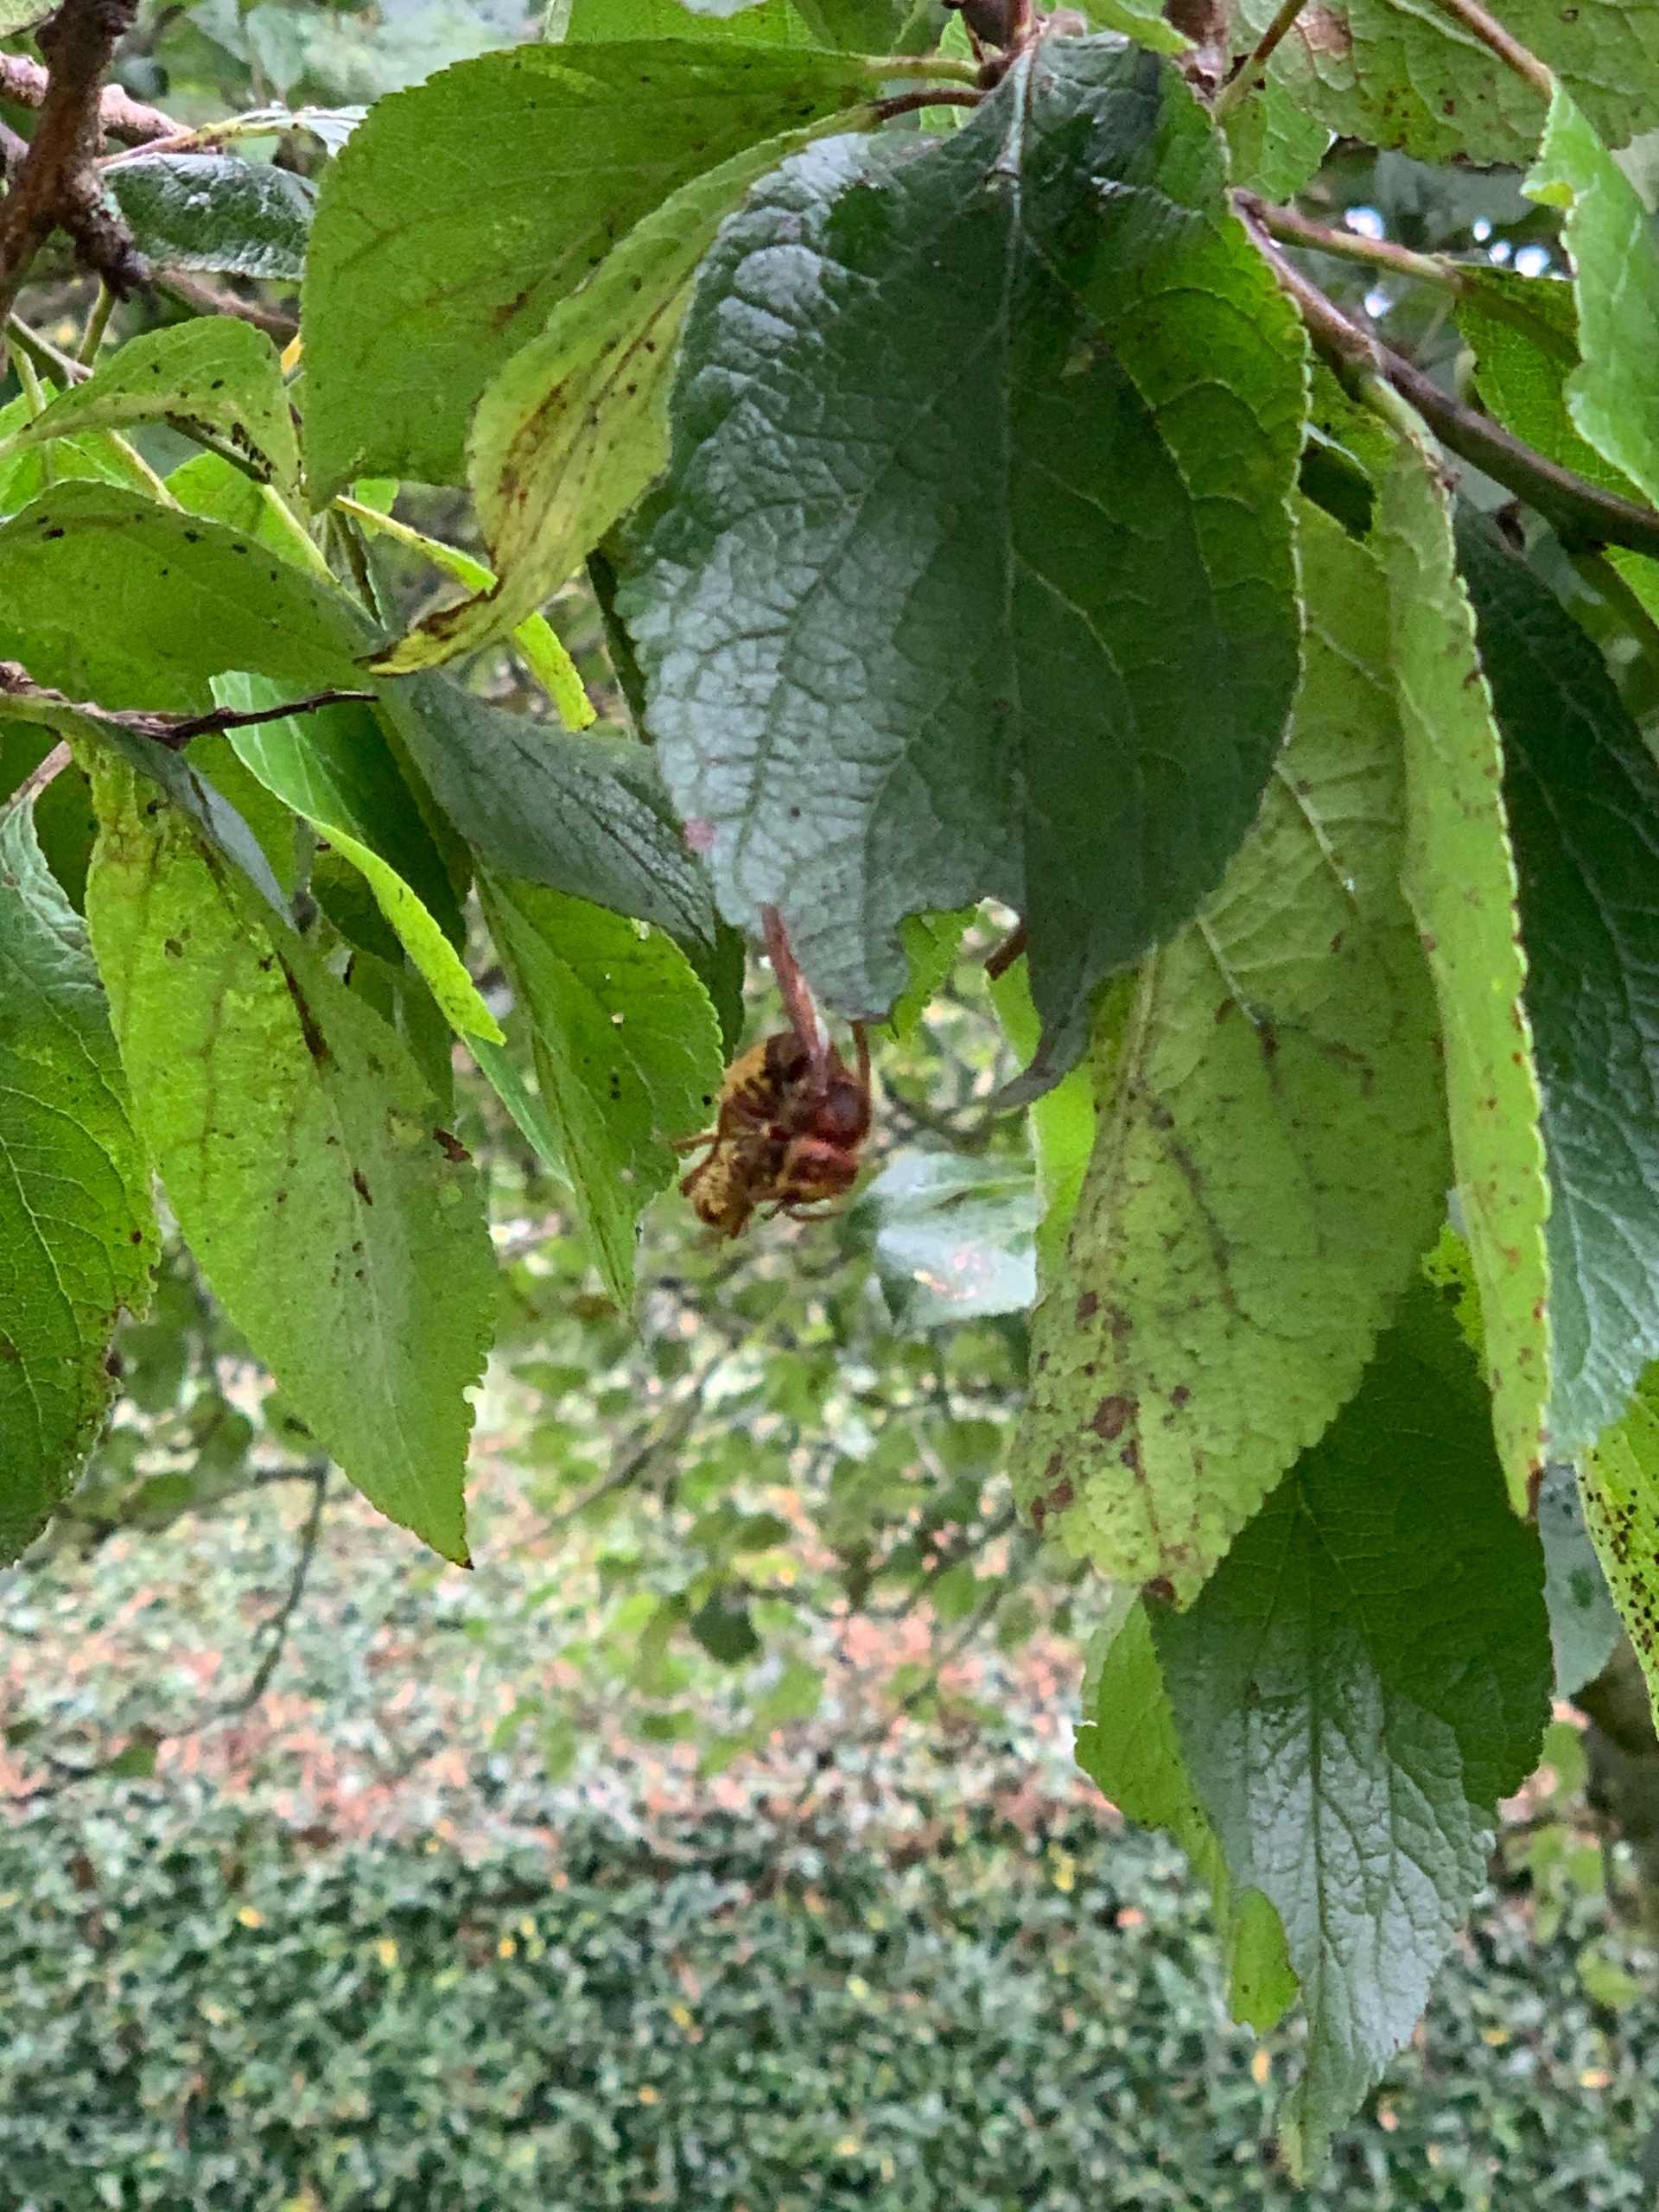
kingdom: Animalia
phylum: Arthropoda
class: Insecta
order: Hymenoptera
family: Vespidae
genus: Vespa
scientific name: Vespa crabro
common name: Stor gedehams
